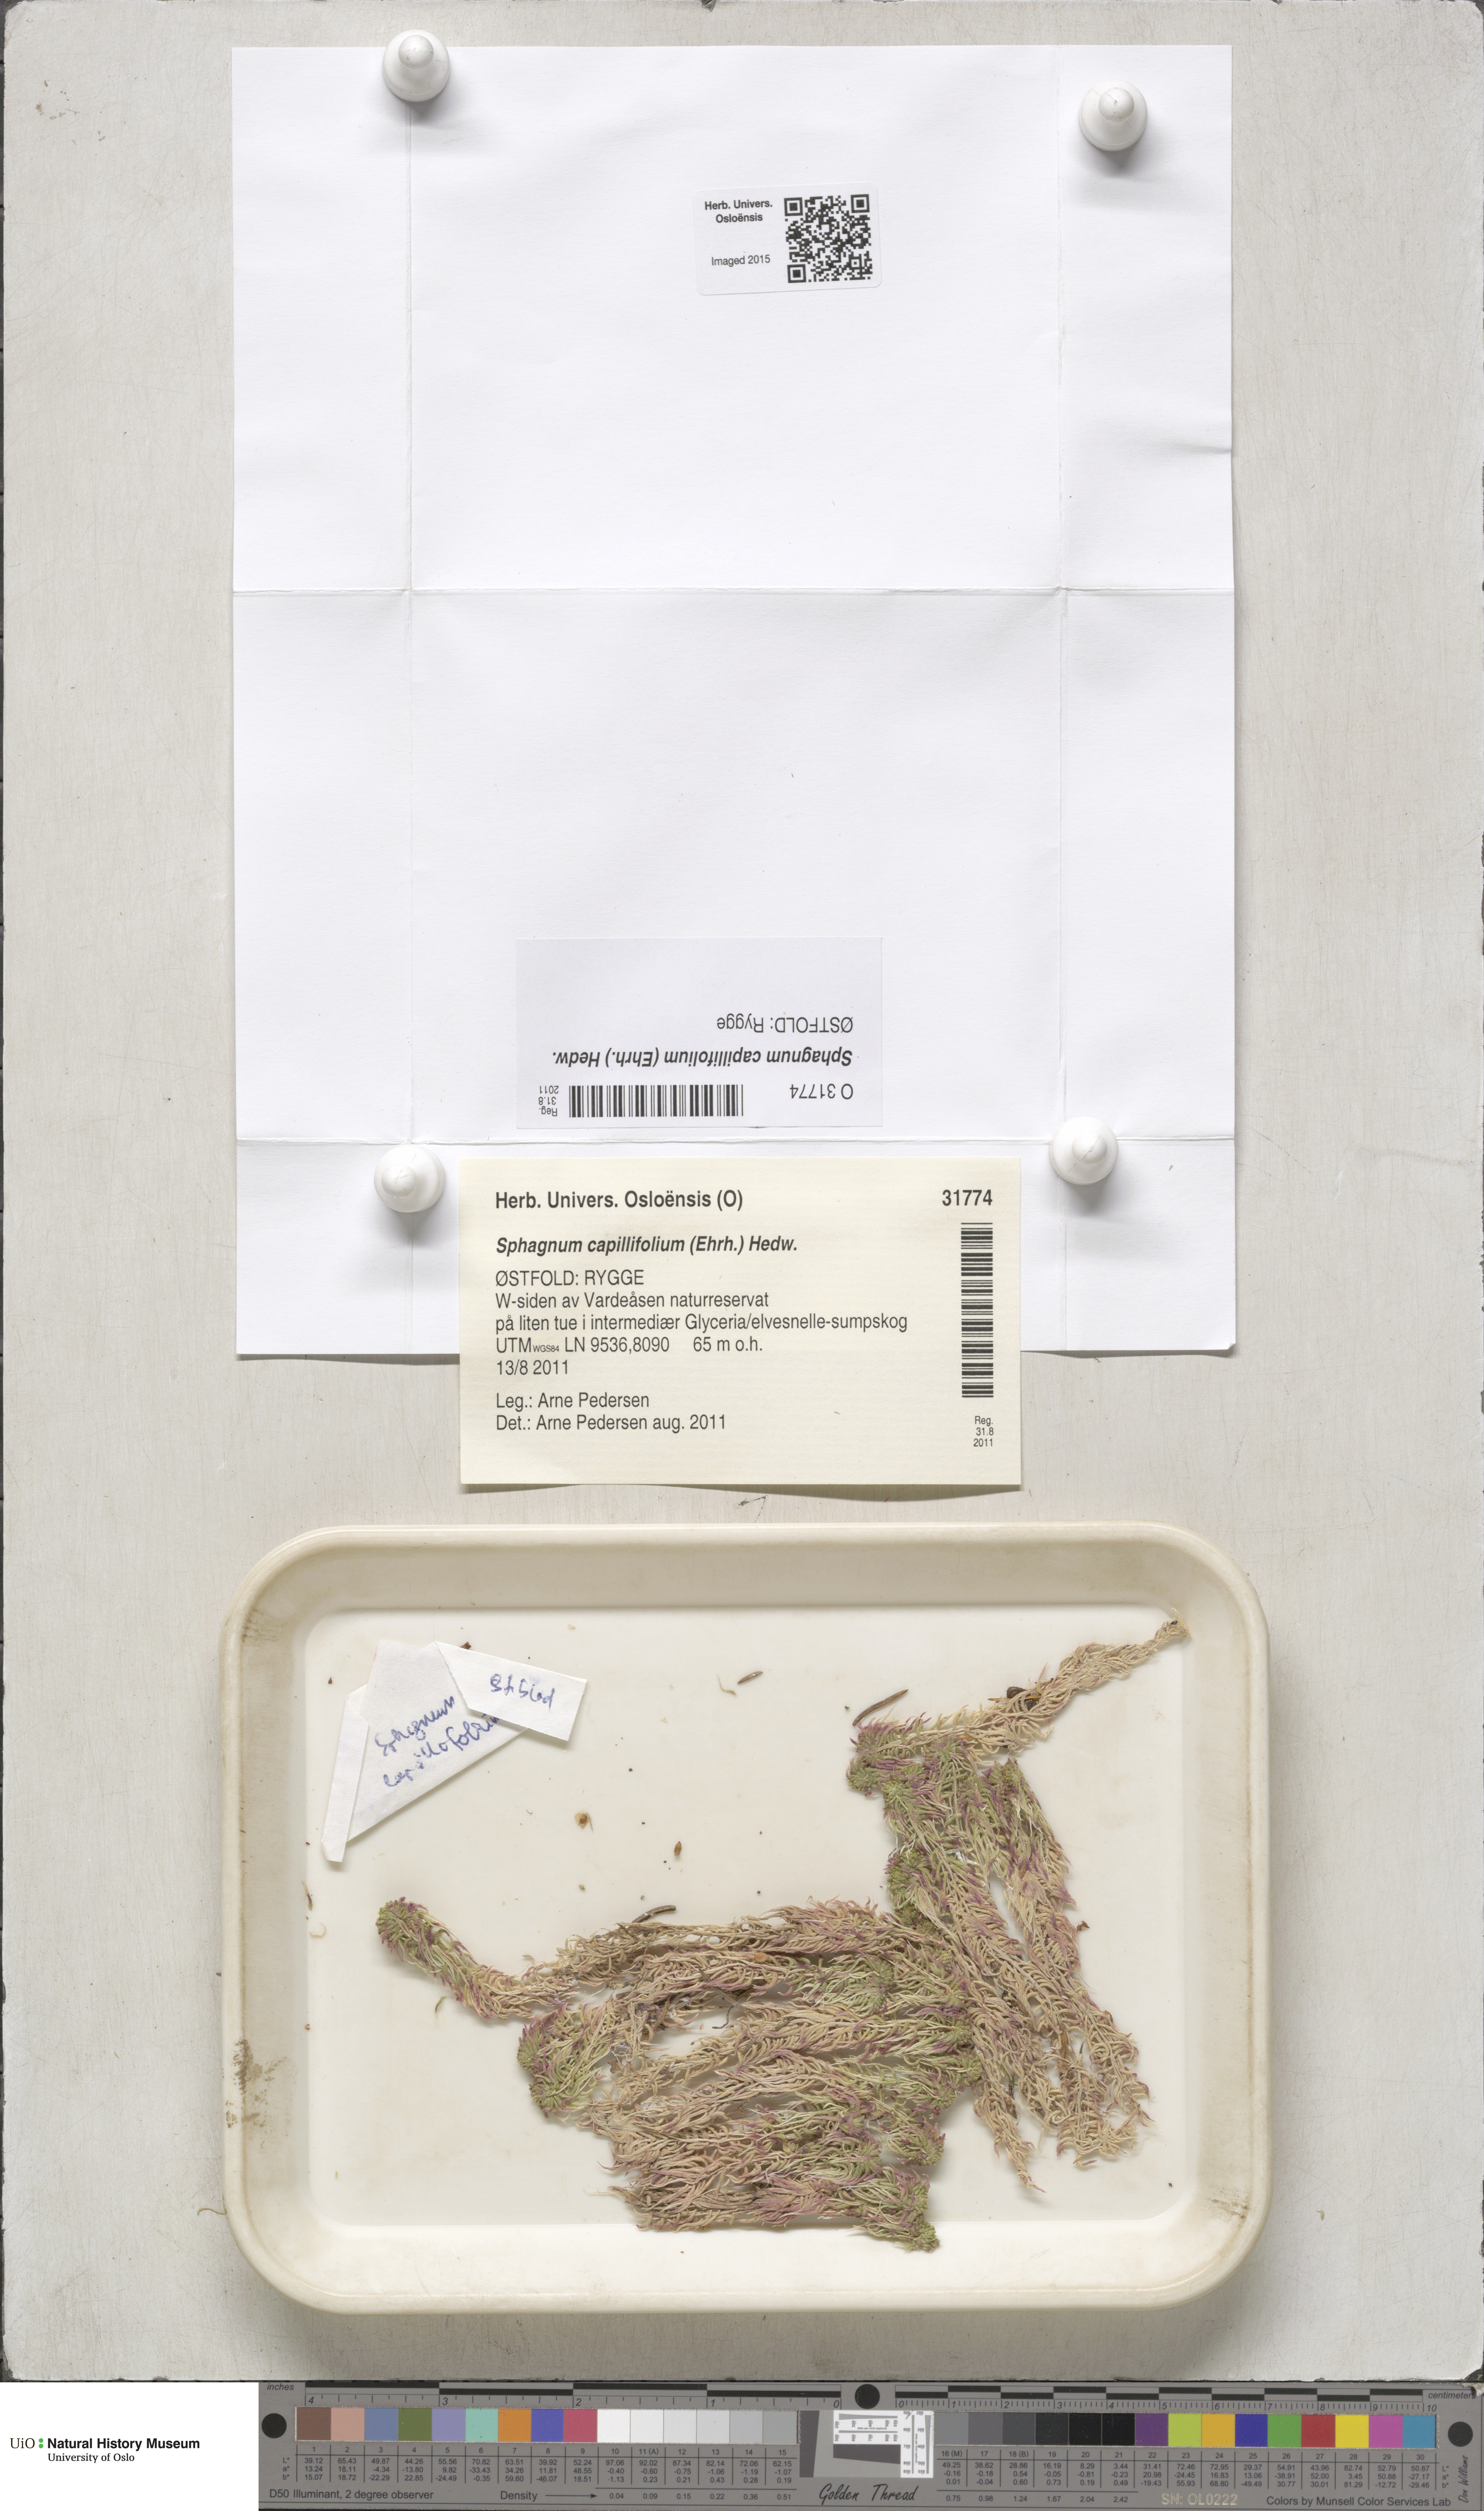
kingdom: Plantae
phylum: Bryophyta
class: Sphagnopsida
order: Sphagnales
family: Sphagnaceae
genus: Sphagnum
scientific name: Sphagnum capillifolium
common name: Small red peat moss
